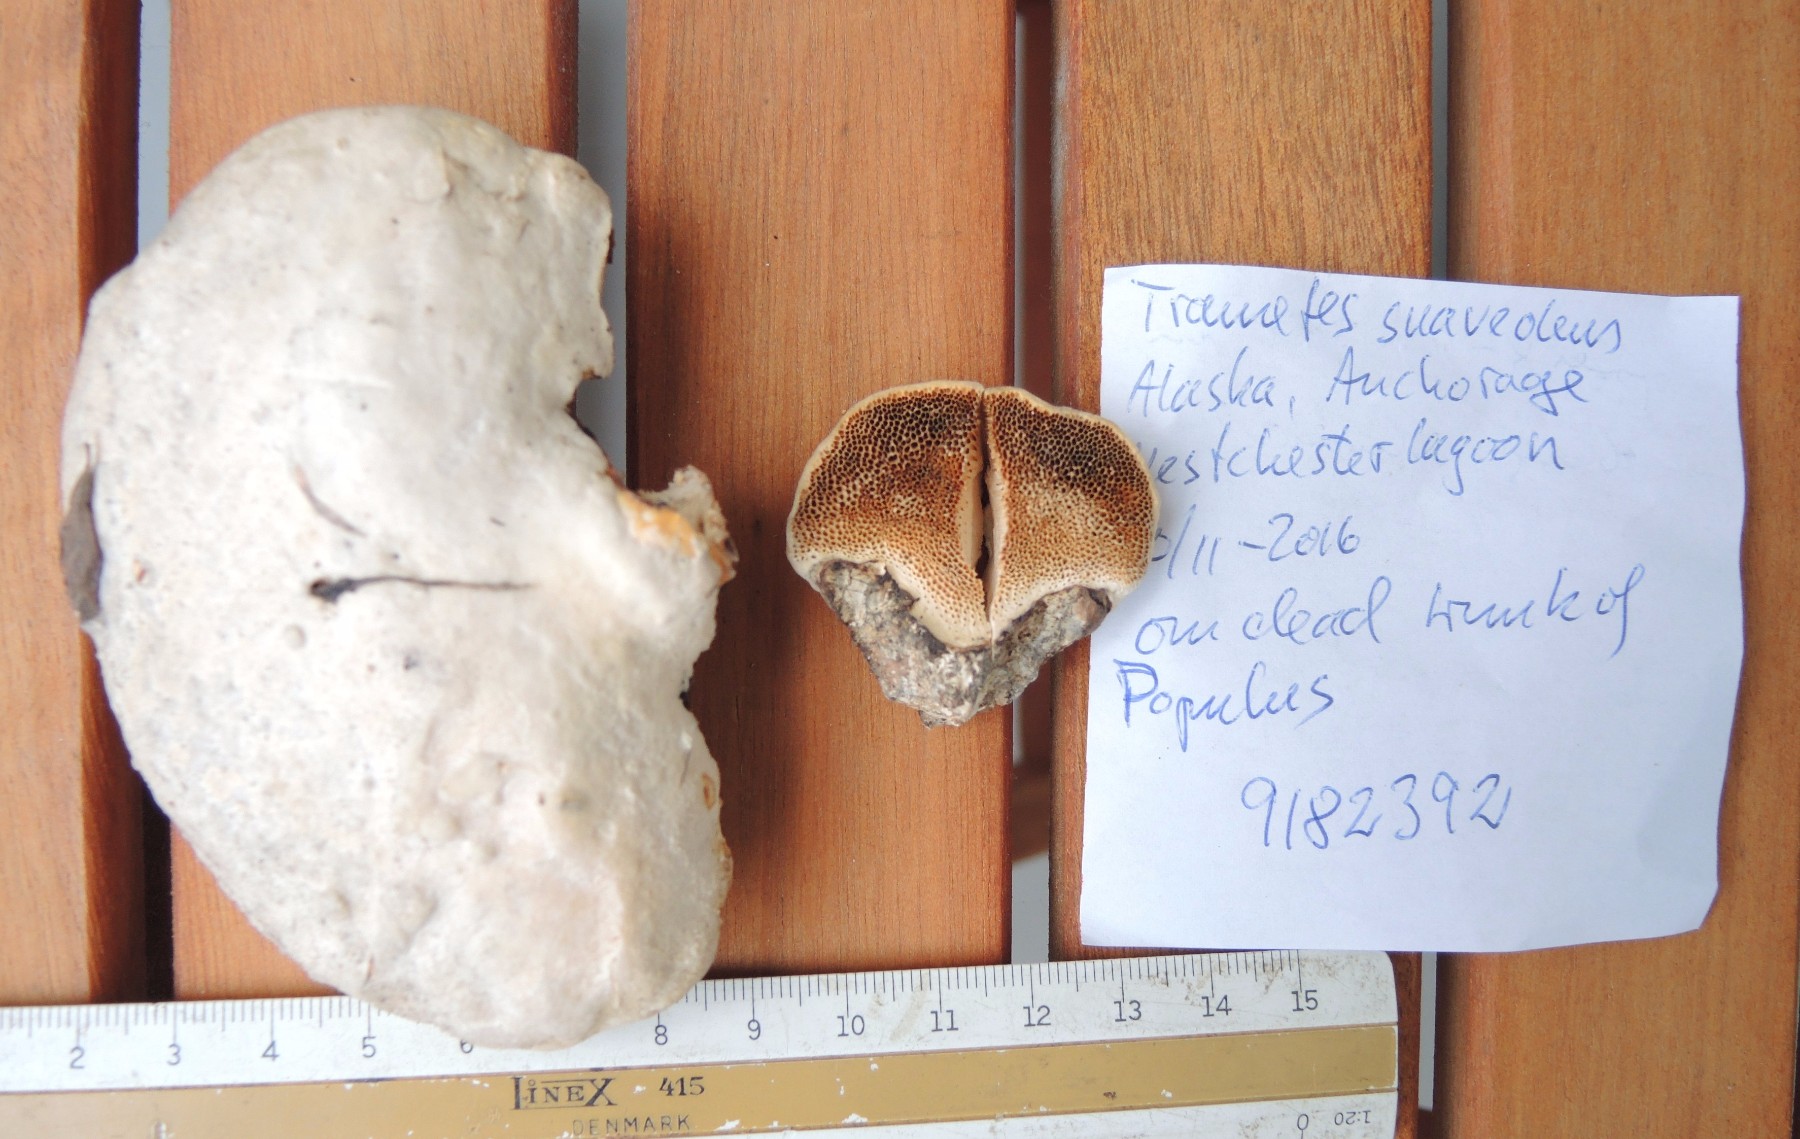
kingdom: Fungi
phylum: Basidiomycota
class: Agaricomycetes
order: Polyporales
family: Polyporaceae
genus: Trametes
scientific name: Trametes suaveolens
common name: vellugtende læderporesvamp
